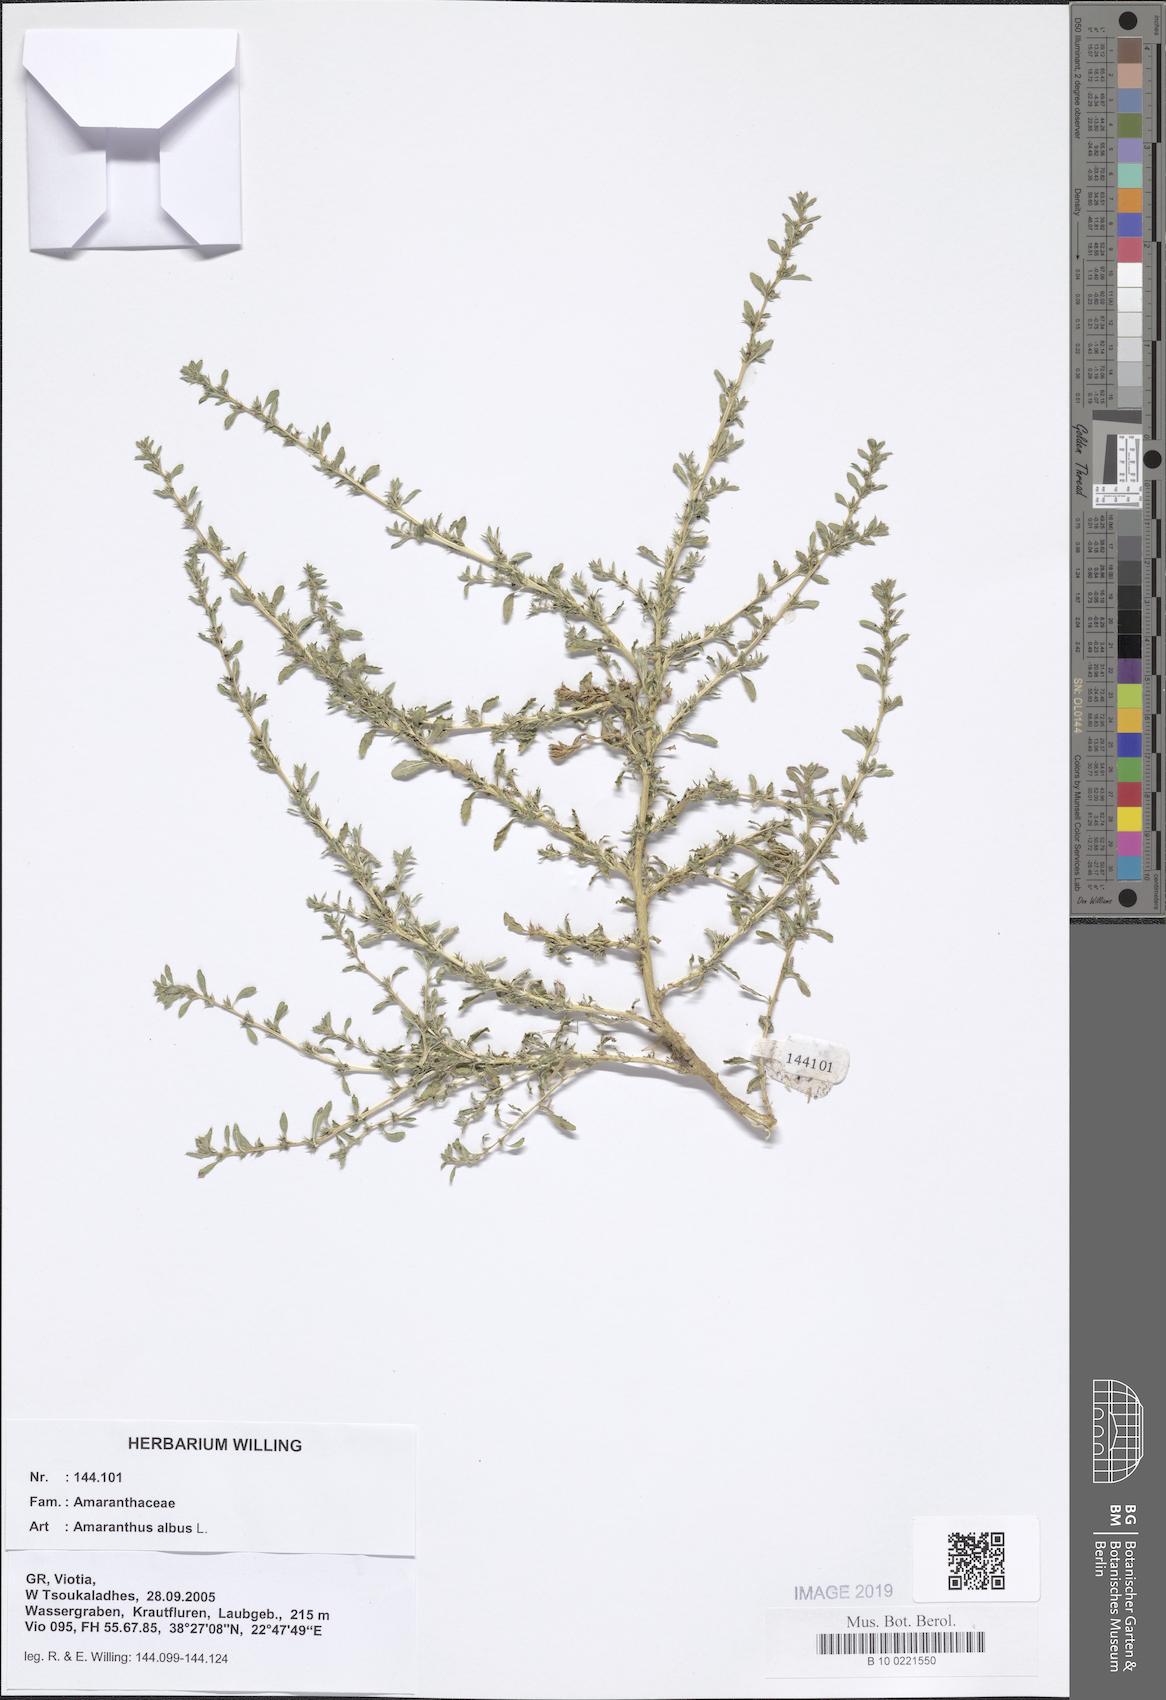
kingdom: Plantae
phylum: Tracheophyta
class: Magnoliopsida
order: Caryophyllales
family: Amaranthaceae
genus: Amaranthus
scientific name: Amaranthus albus
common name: White pigweed
